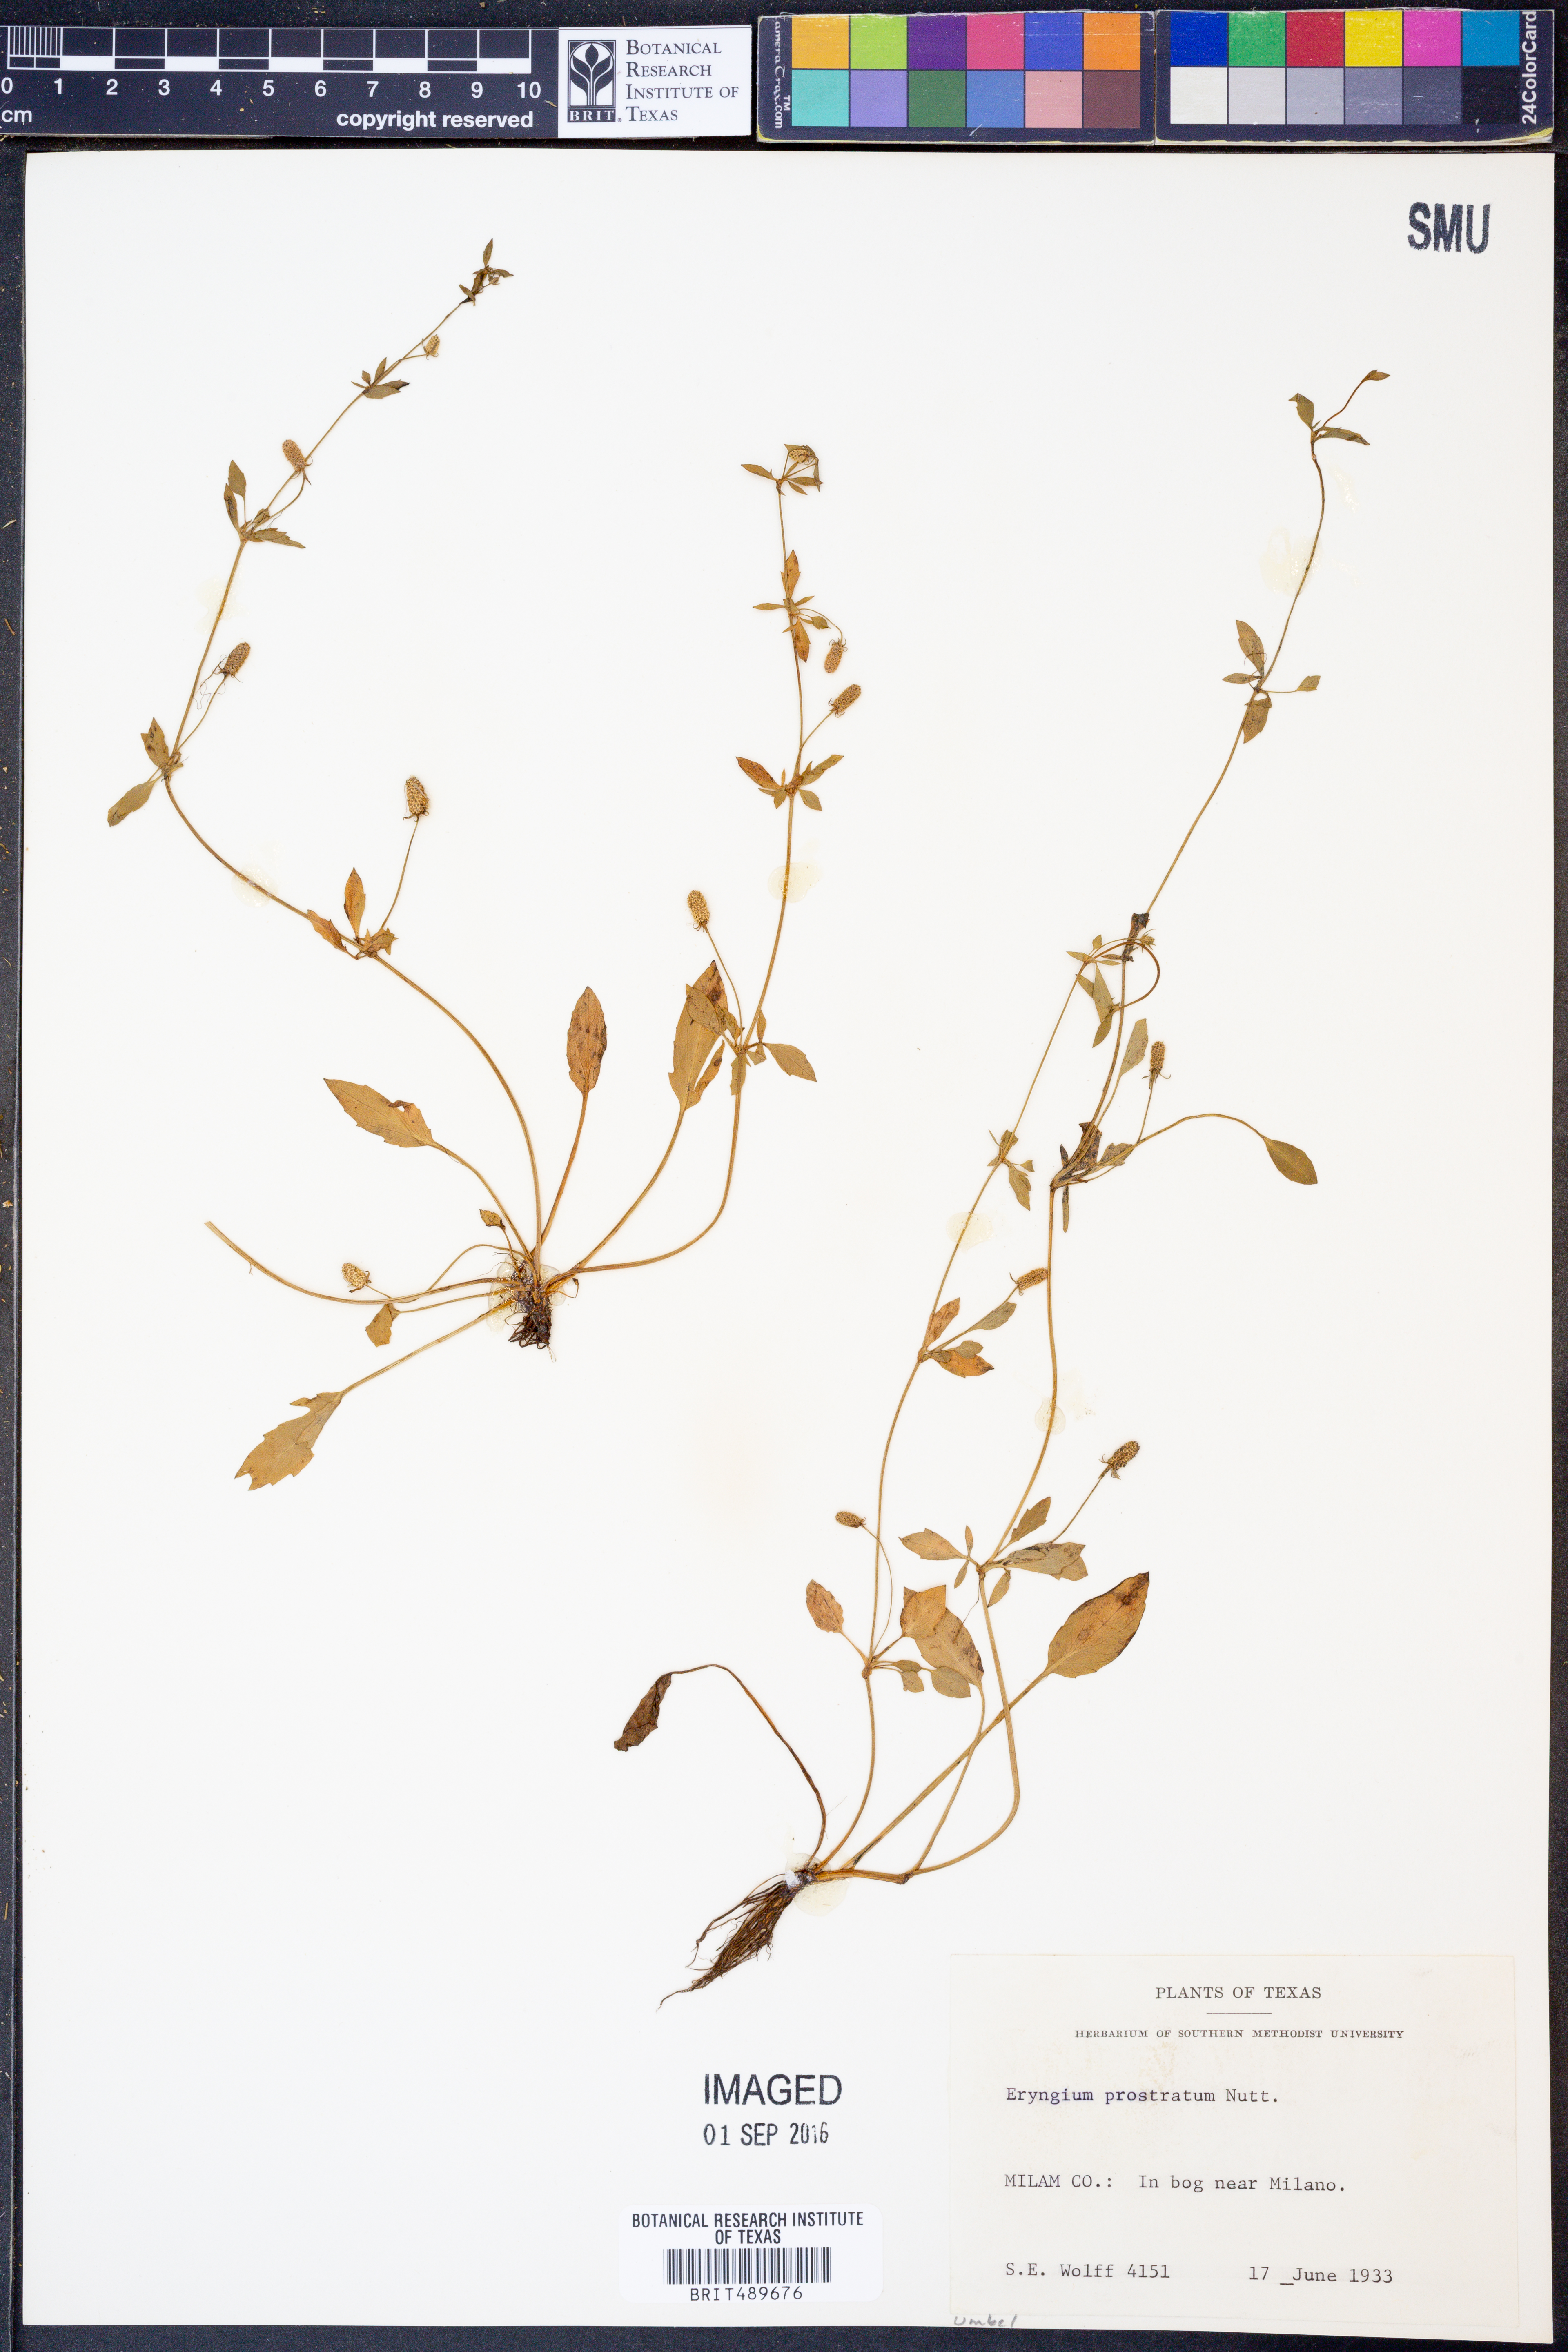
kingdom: Plantae
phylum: Tracheophyta
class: Magnoliopsida
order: Apiales
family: Apiaceae
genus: Eryngium
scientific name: Eryngium prostratum
